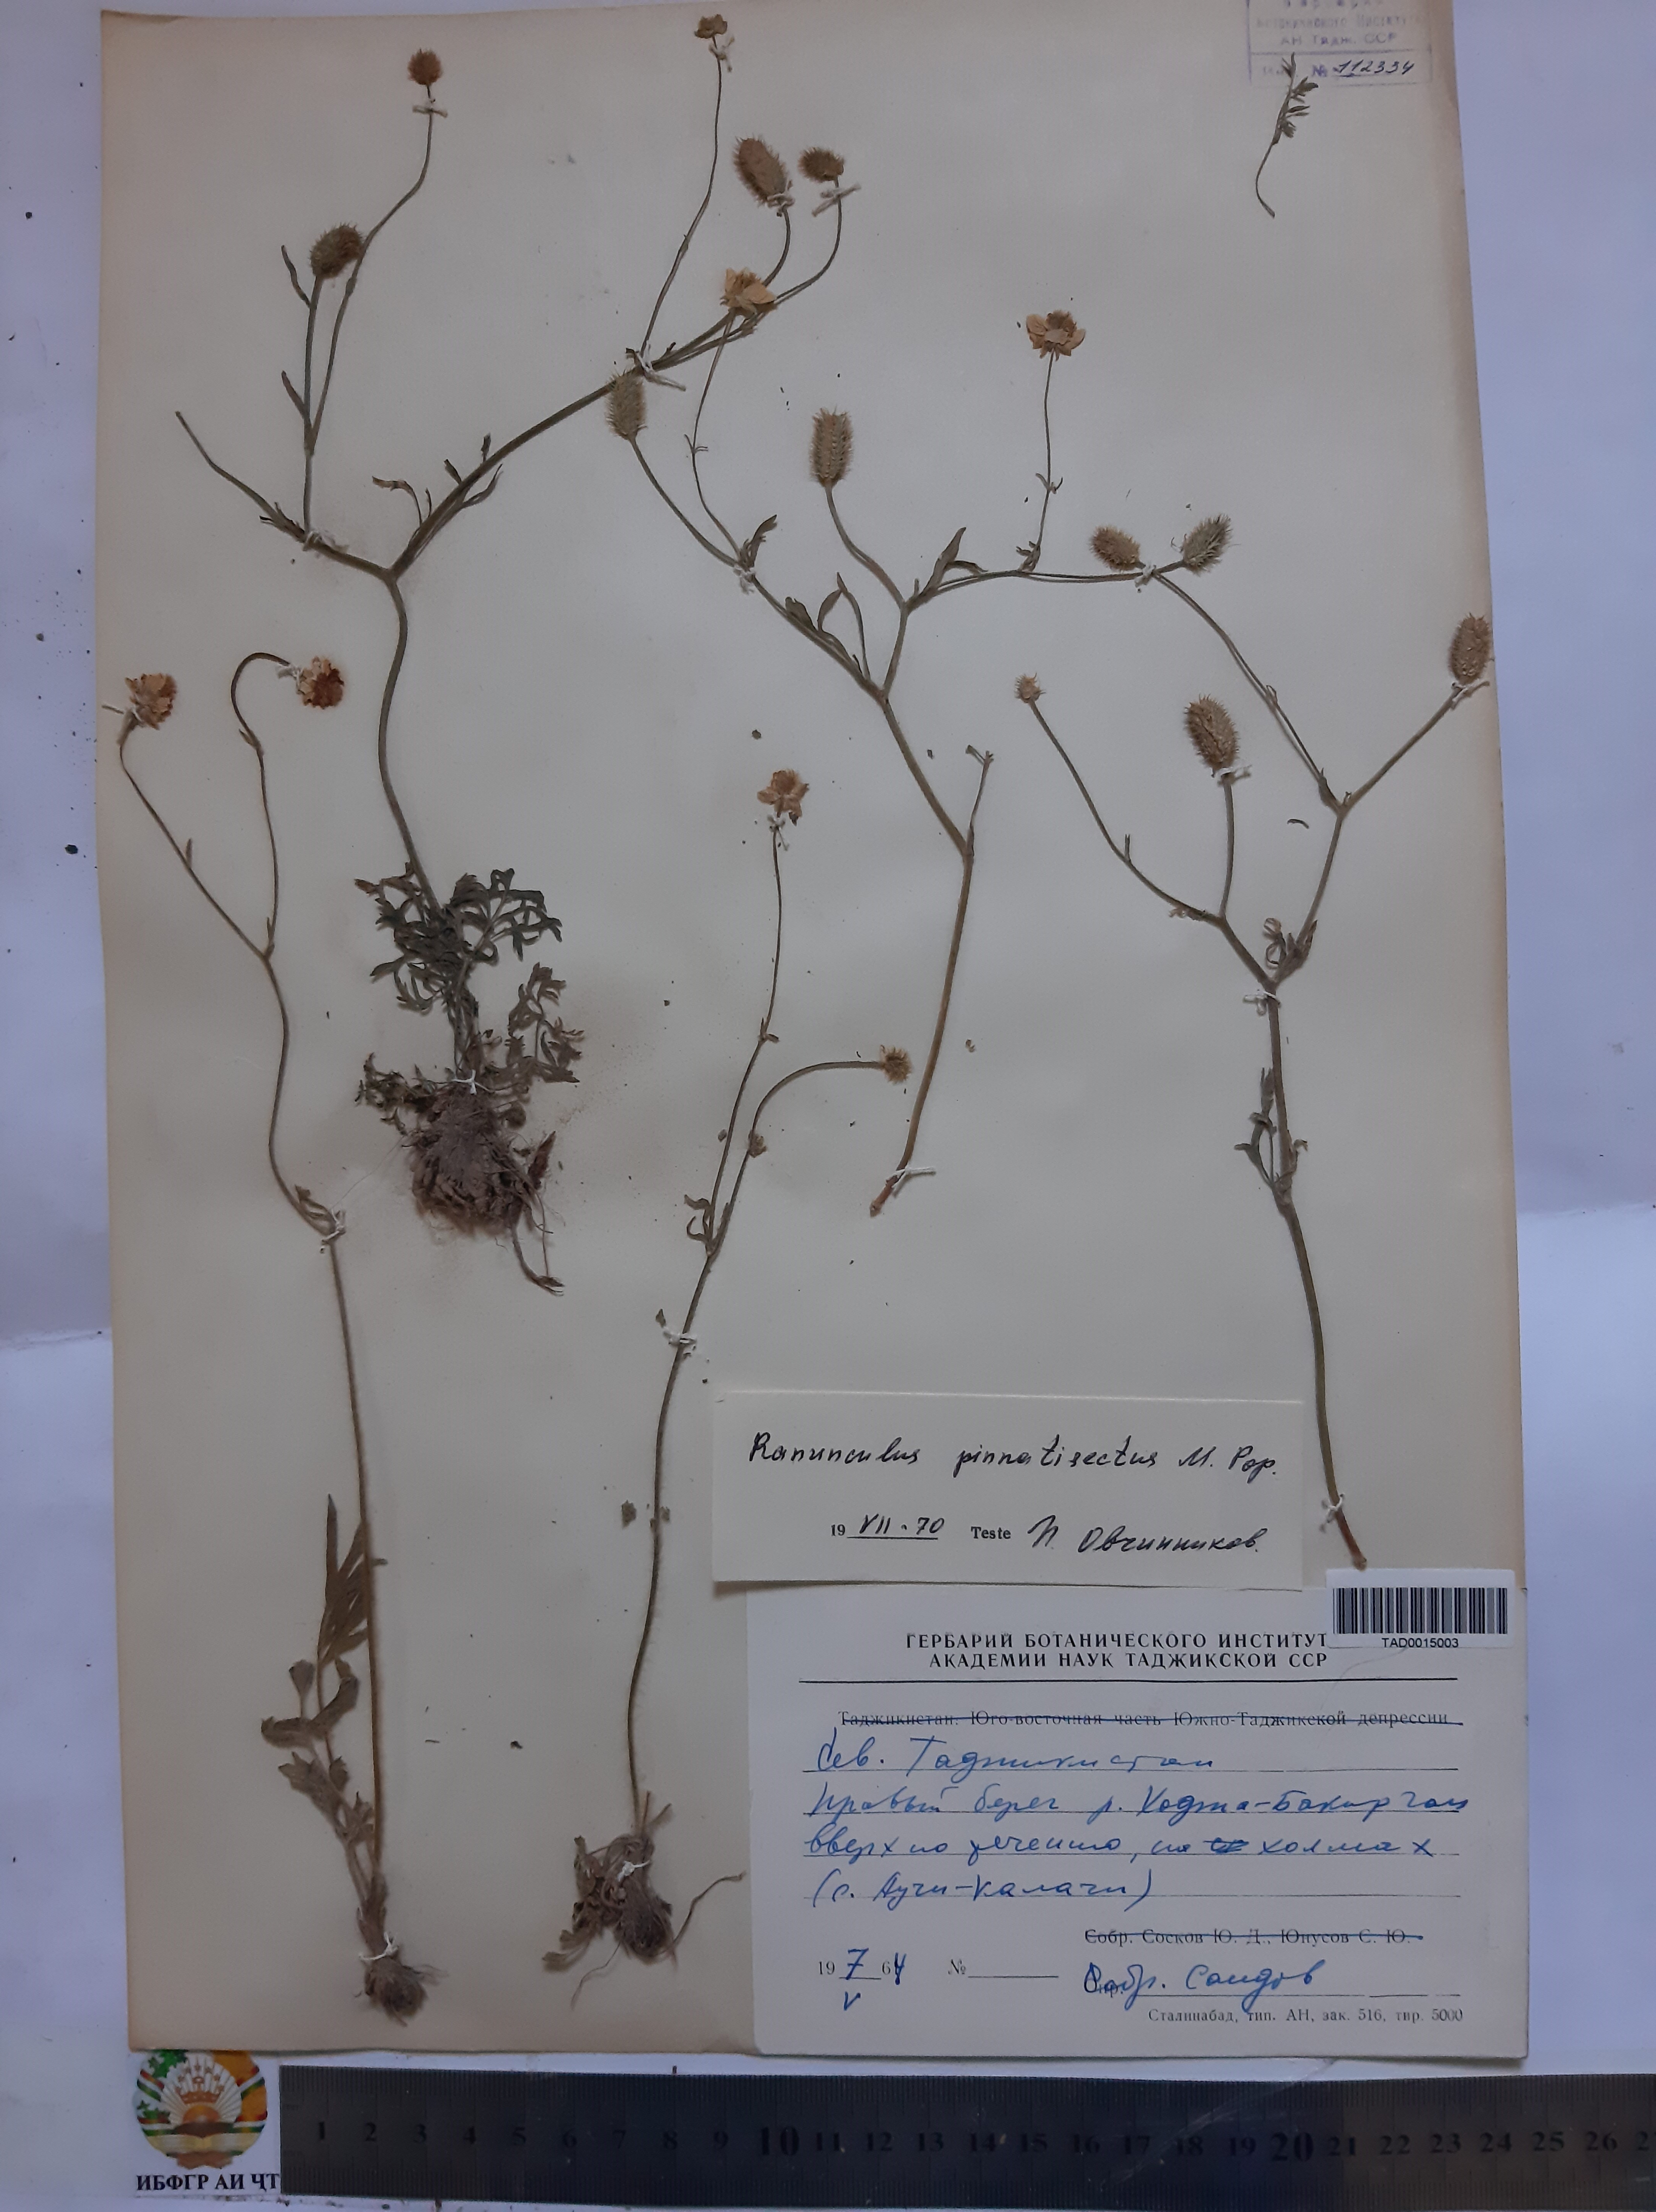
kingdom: Plantae
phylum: Tracheophyta
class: Magnoliopsida
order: Ranunculales
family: Ranunculaceae
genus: Ranunculus
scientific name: Ranunculus pinnatisectus
